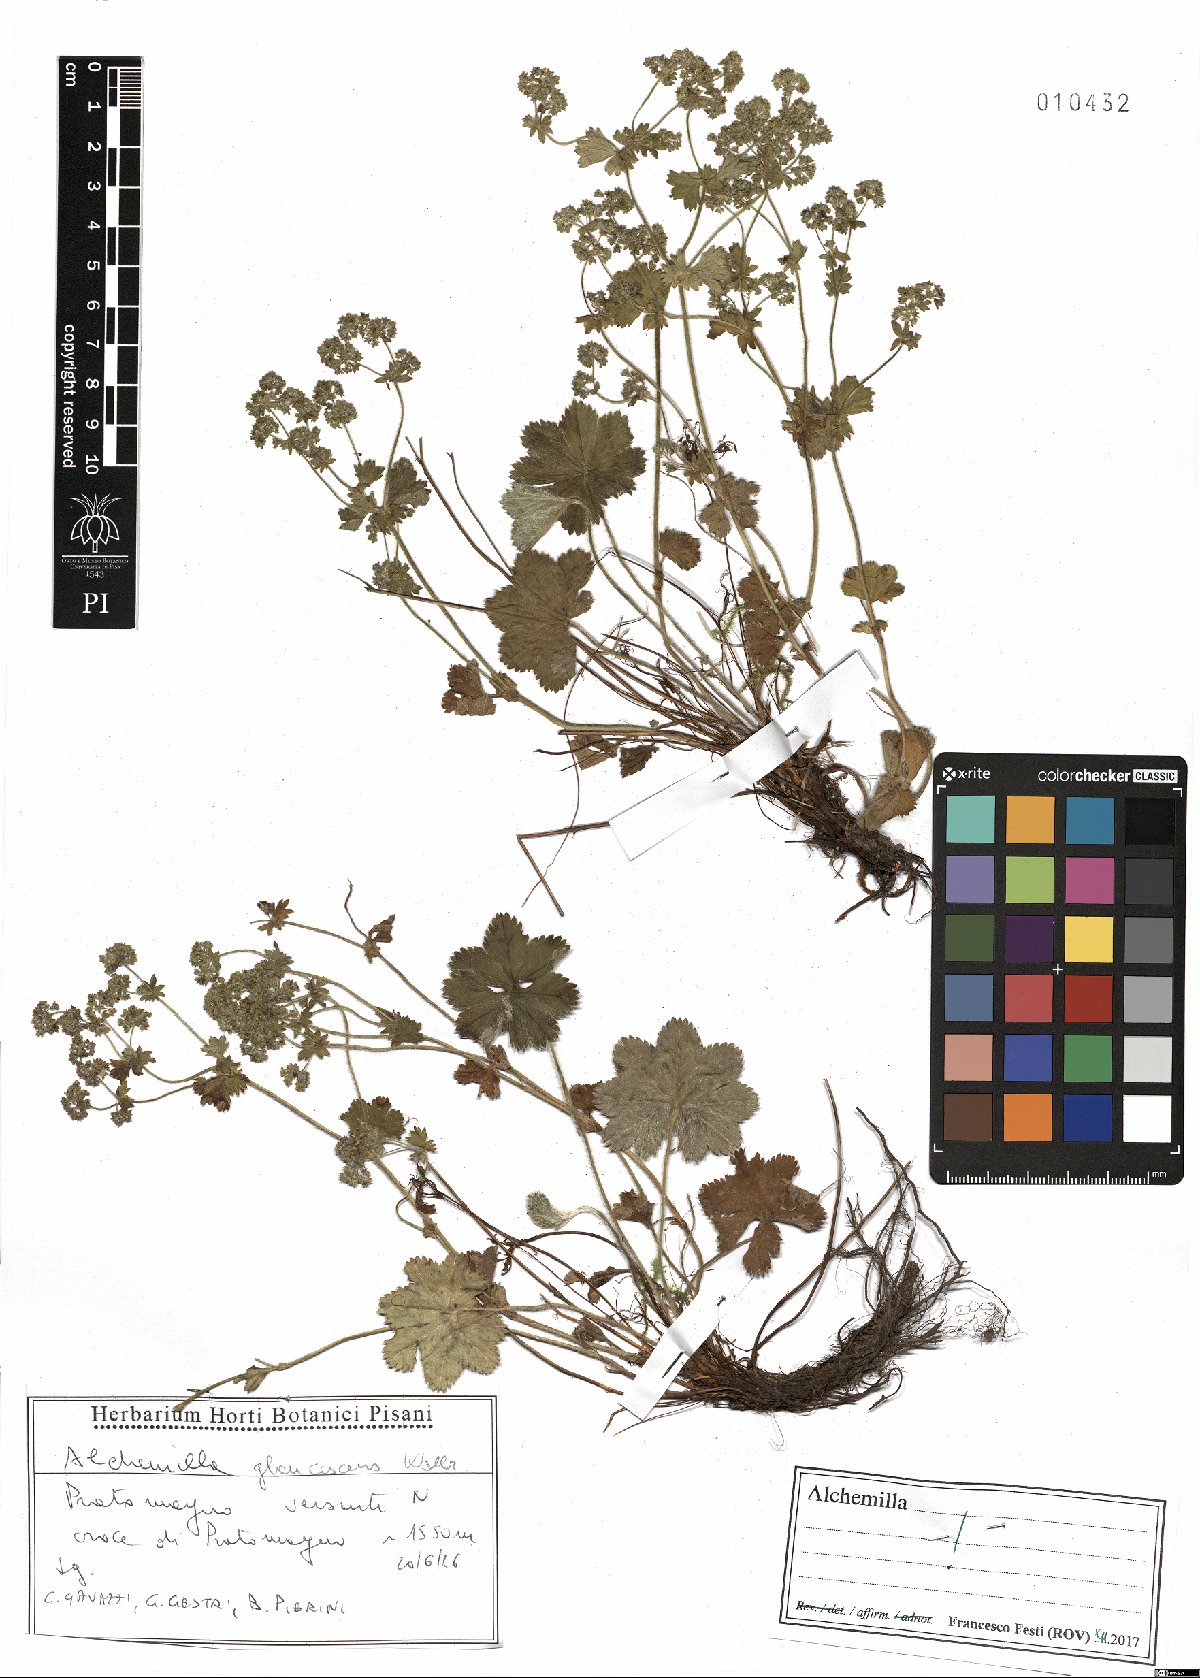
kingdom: Plantae
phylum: Tracheophyta
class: Magnoliopsida
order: Rosales
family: Rosaceae
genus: Alchemilla
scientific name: Alchemilla glaucescens
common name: Silky lady's mantle
